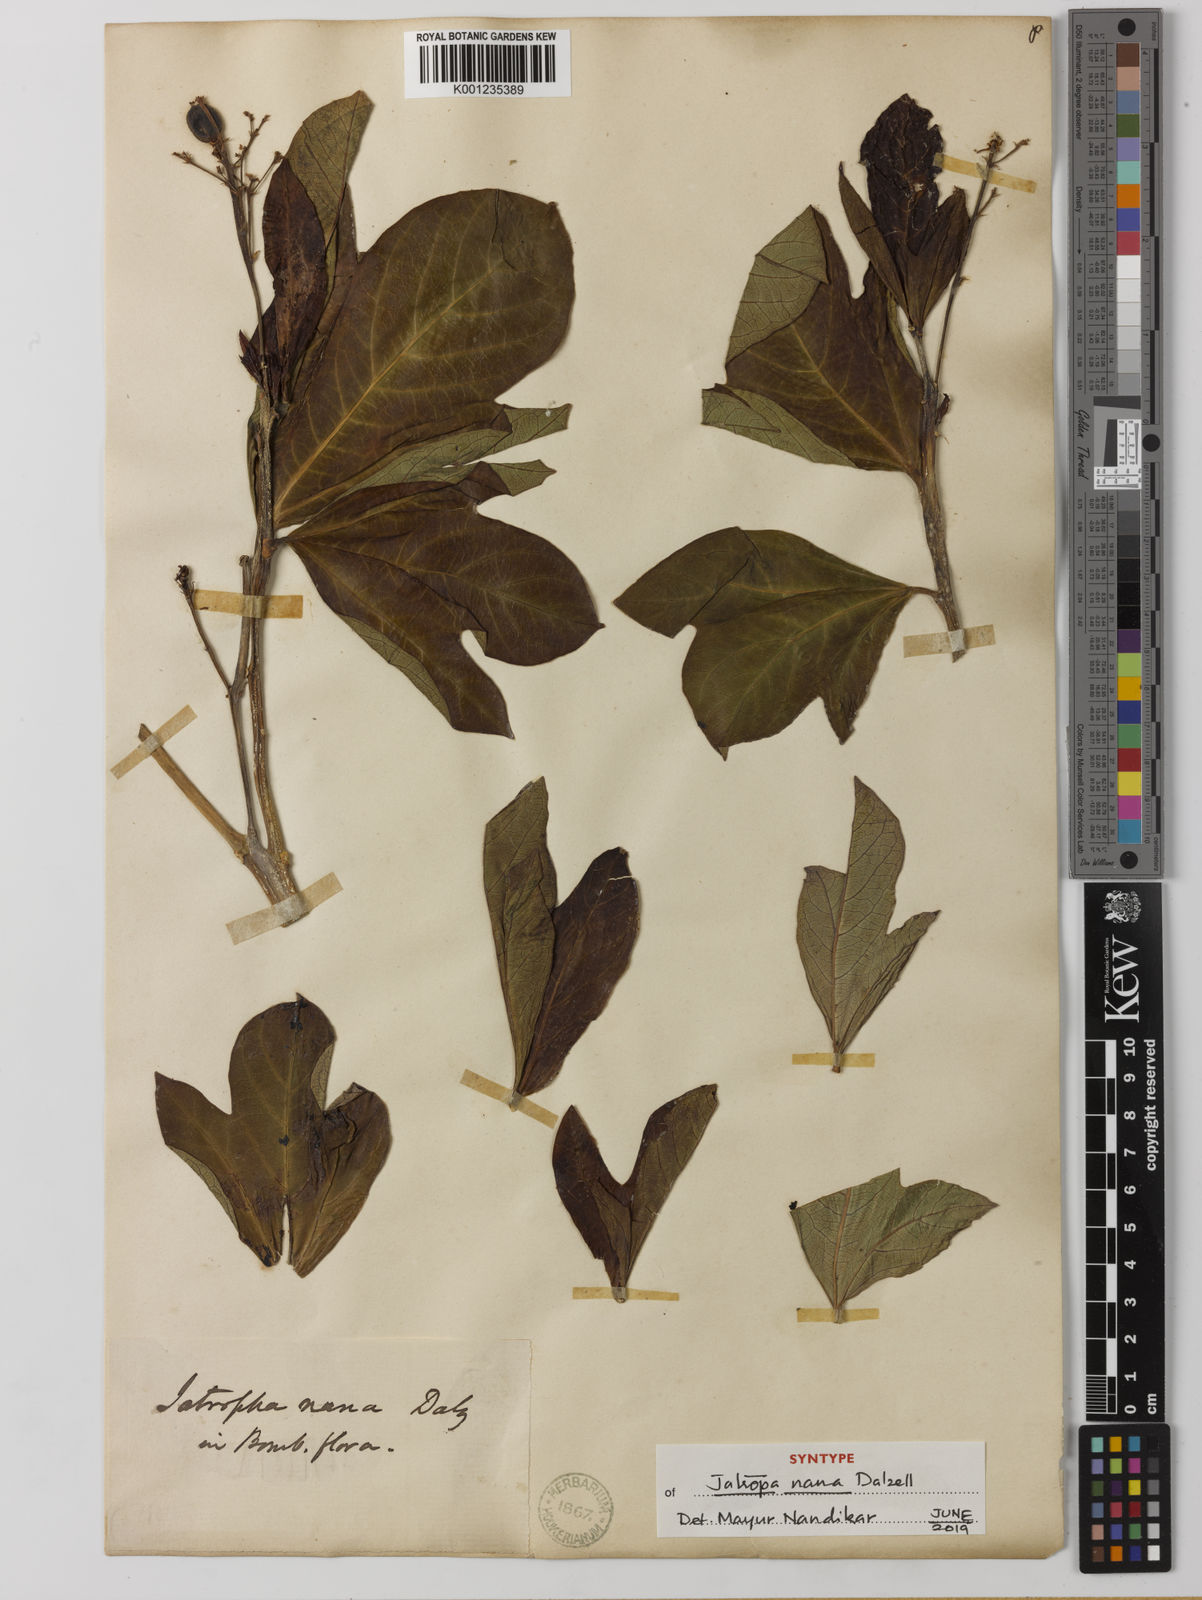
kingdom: Plantae
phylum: Tracheophyta
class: Magnoliopsida
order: Malpighiales
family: Euphorbiaceae
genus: Jatropha
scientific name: Jatropha nana
